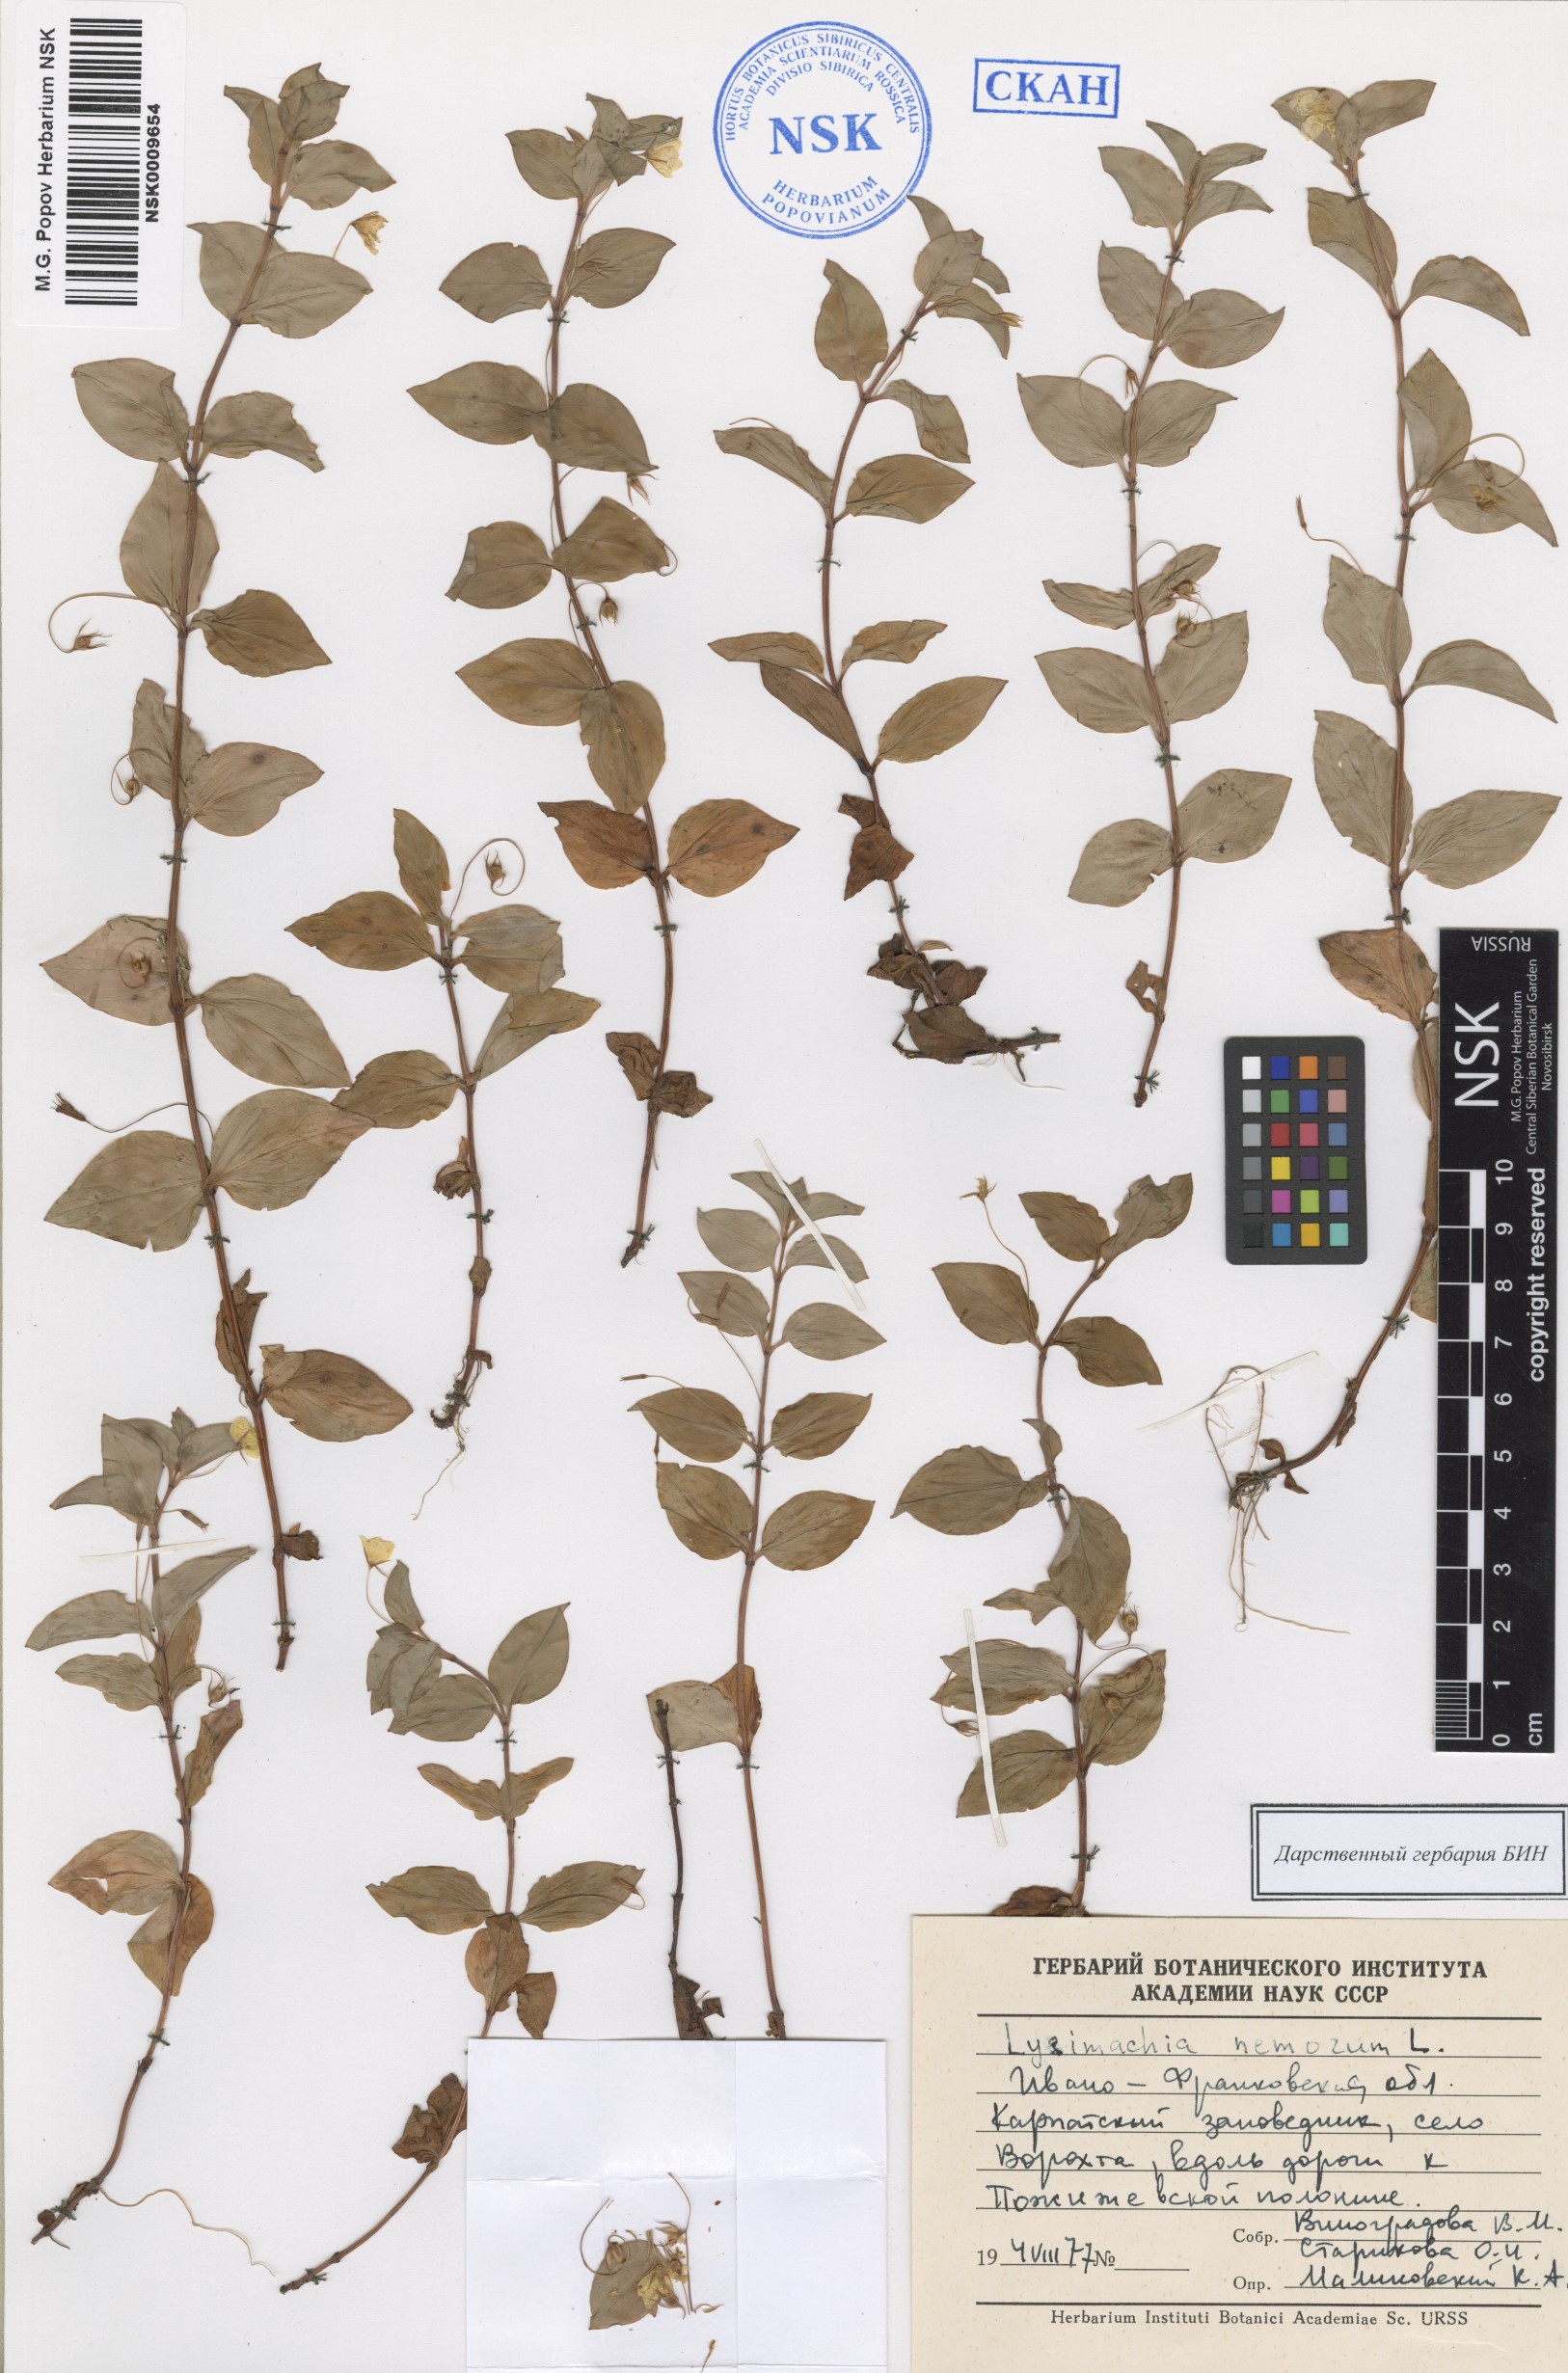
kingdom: Plantae
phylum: Tracheophyta
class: Magnoliopsida
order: Ericales
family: Primulaceae
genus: Lysimachia
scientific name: Lysimachia nemorum
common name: Yellow pimpernel
